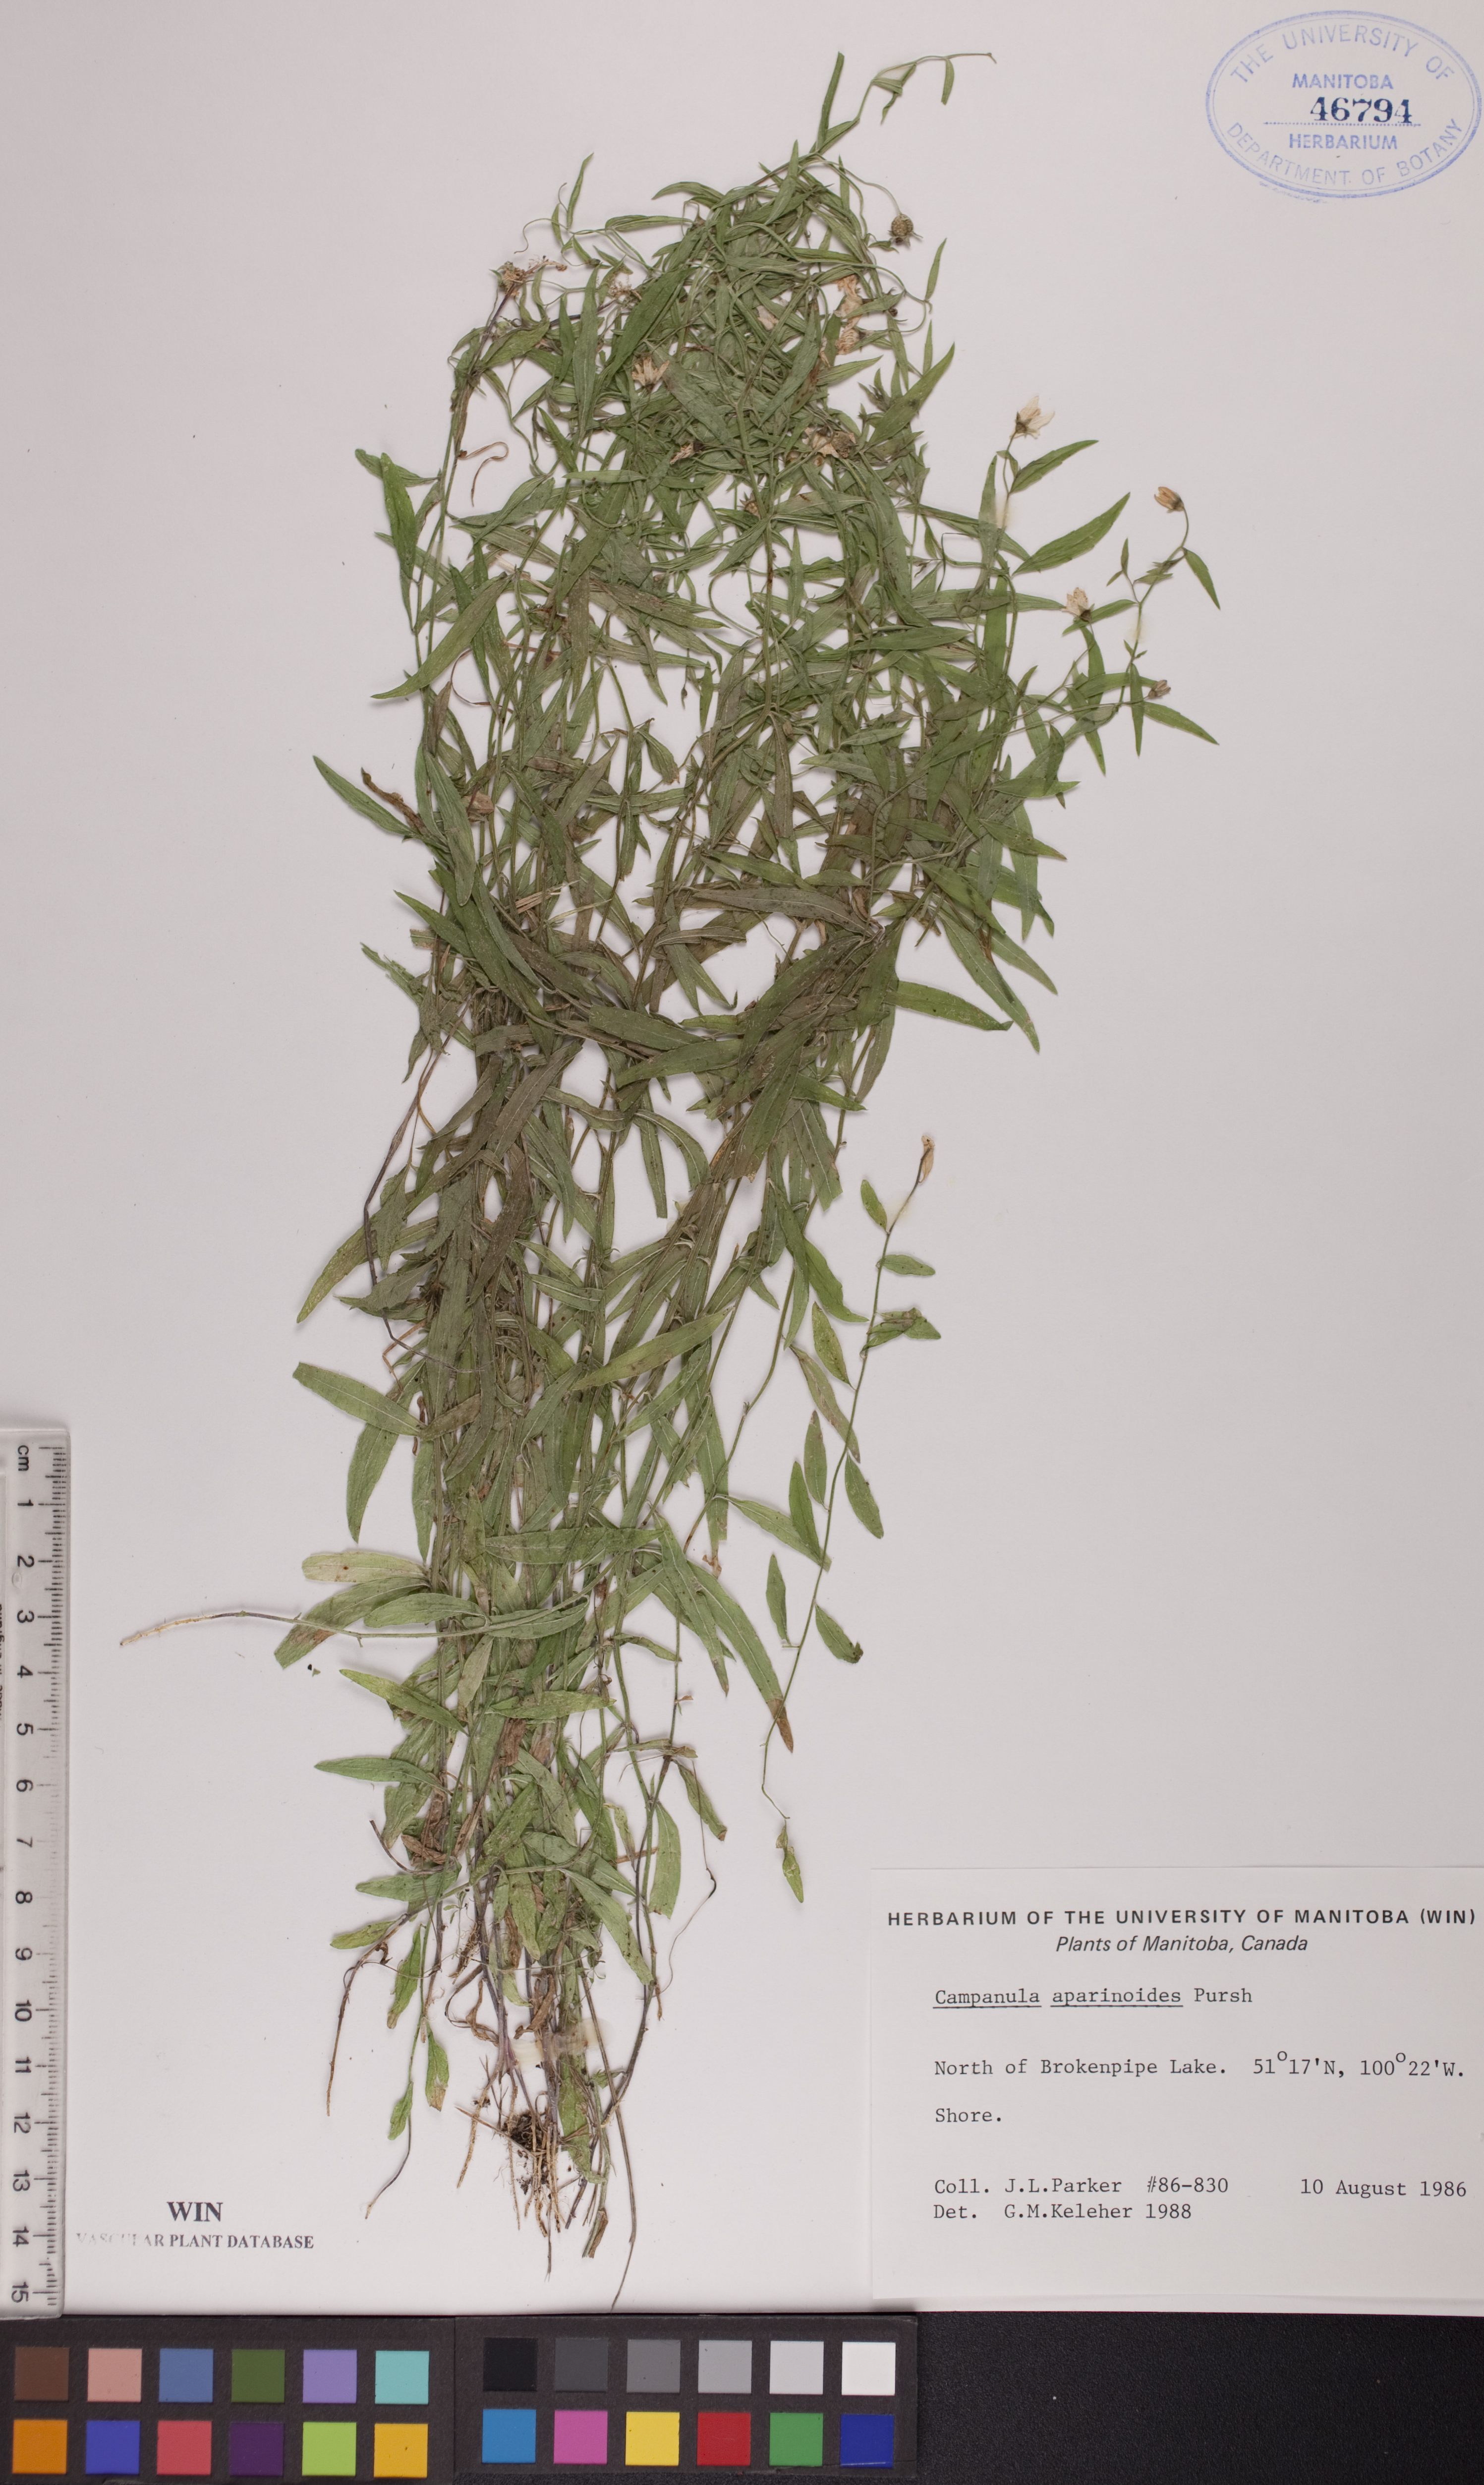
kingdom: Plantae
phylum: Tracheophyta
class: Magnoliopsida
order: Asterales
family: Campanulaceae
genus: Palustricodon
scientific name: Palustricodon aparinoides
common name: Bedstraw bellflower
